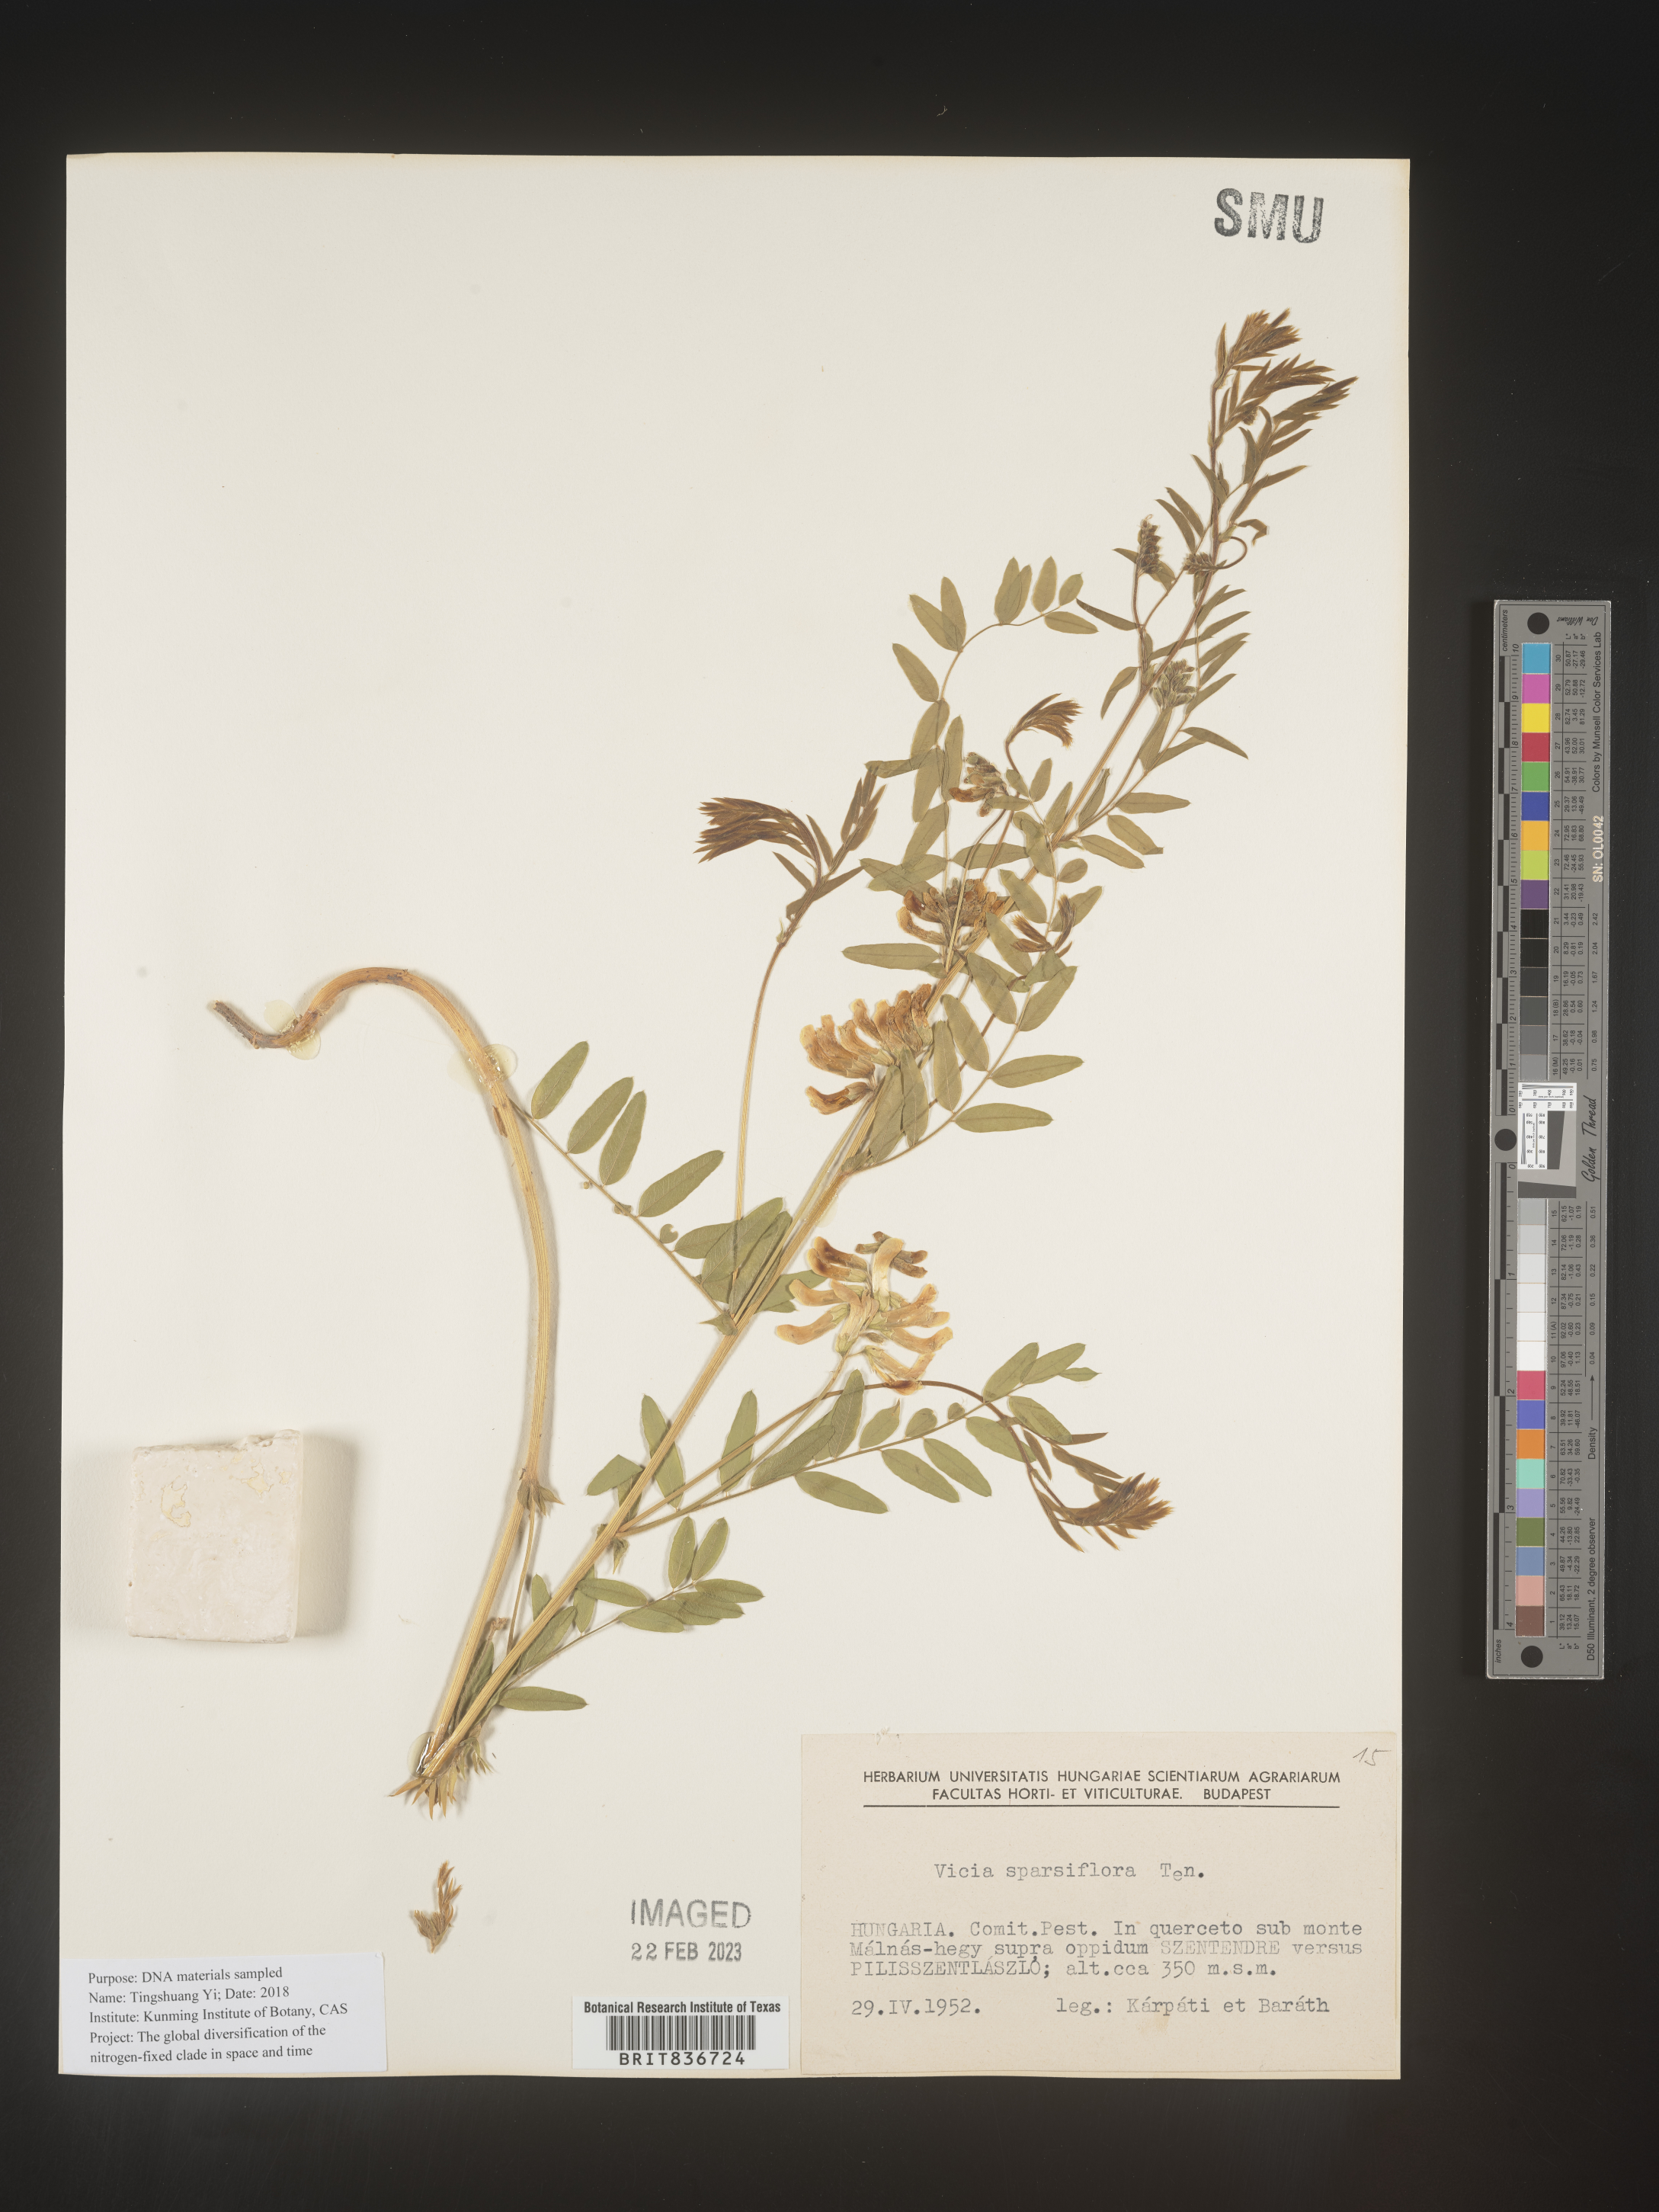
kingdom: Plantae
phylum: Tracheophyta
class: Magnoliopsida
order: Fabales
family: Fabaceae
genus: Vicia
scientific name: Vicia
